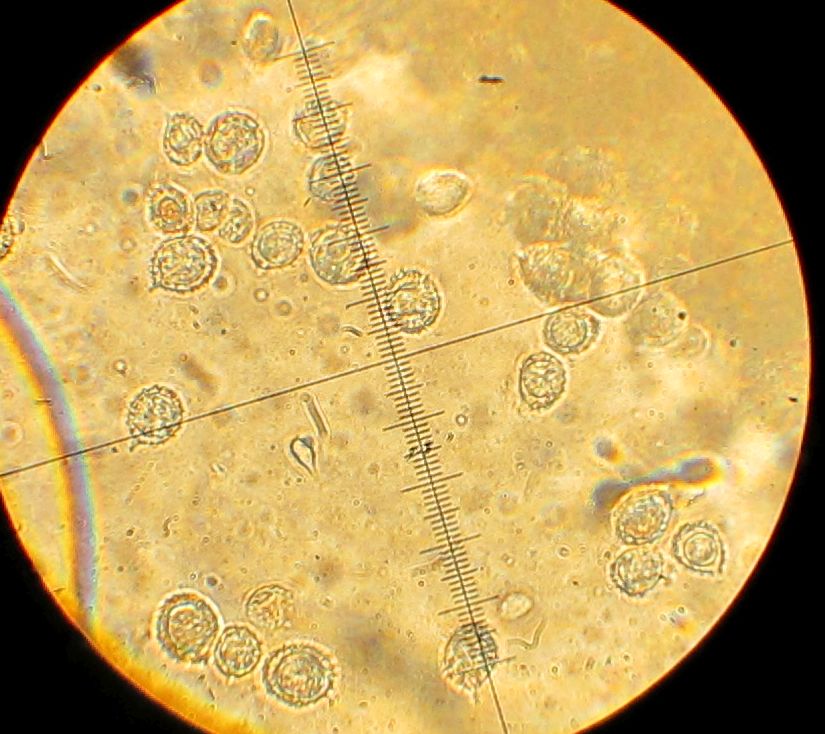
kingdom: Fungi
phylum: Basidiomycota
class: Agaricomycetes
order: Russulales
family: Russulaceae
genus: Russula
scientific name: Russula graveolens
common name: bugtet skørhat
